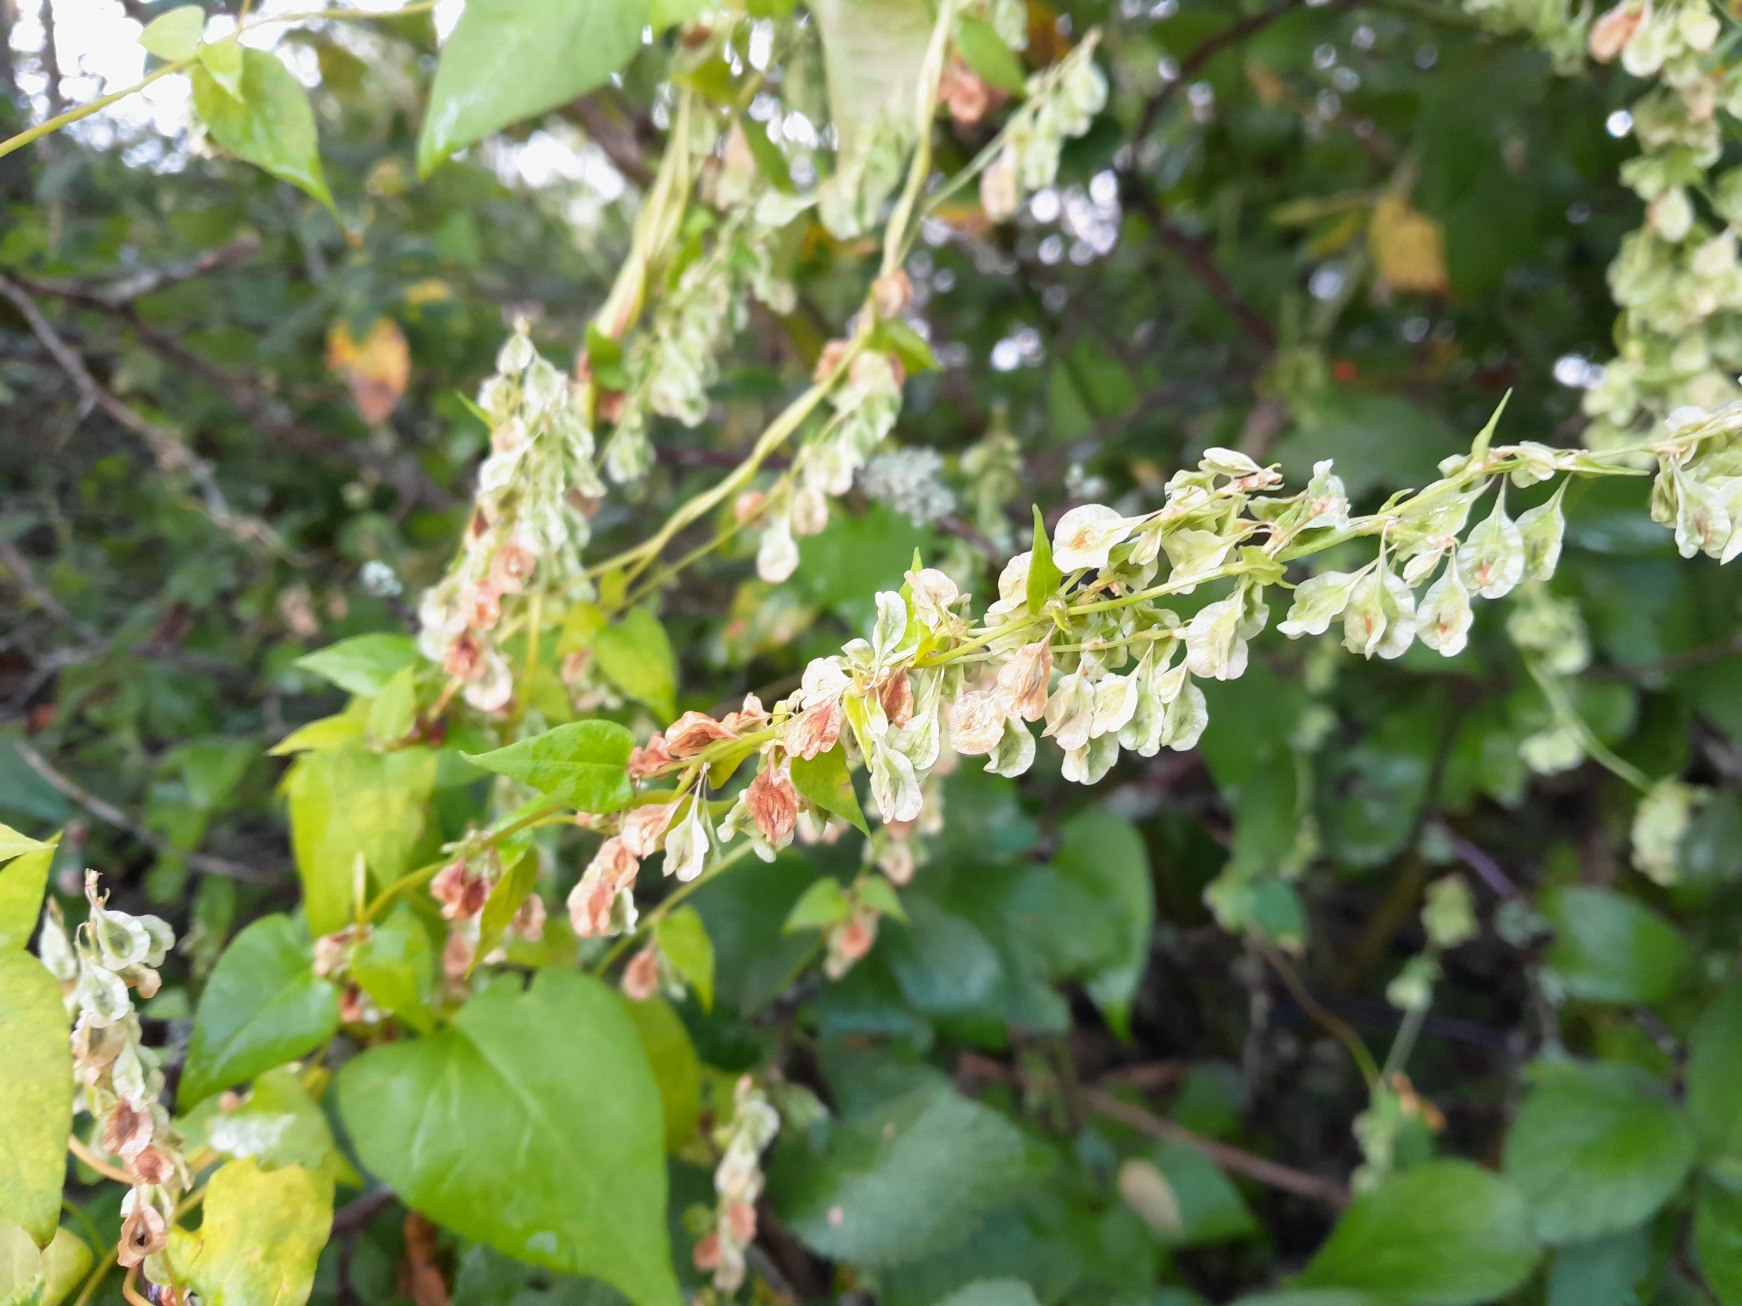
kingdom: Plantae
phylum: Tracheophyta
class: Magnoliopsida
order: Caryophyllales
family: Polygonaceae
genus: Fallopia
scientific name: Fallopia dumetorum
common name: Vinge-pileurt
